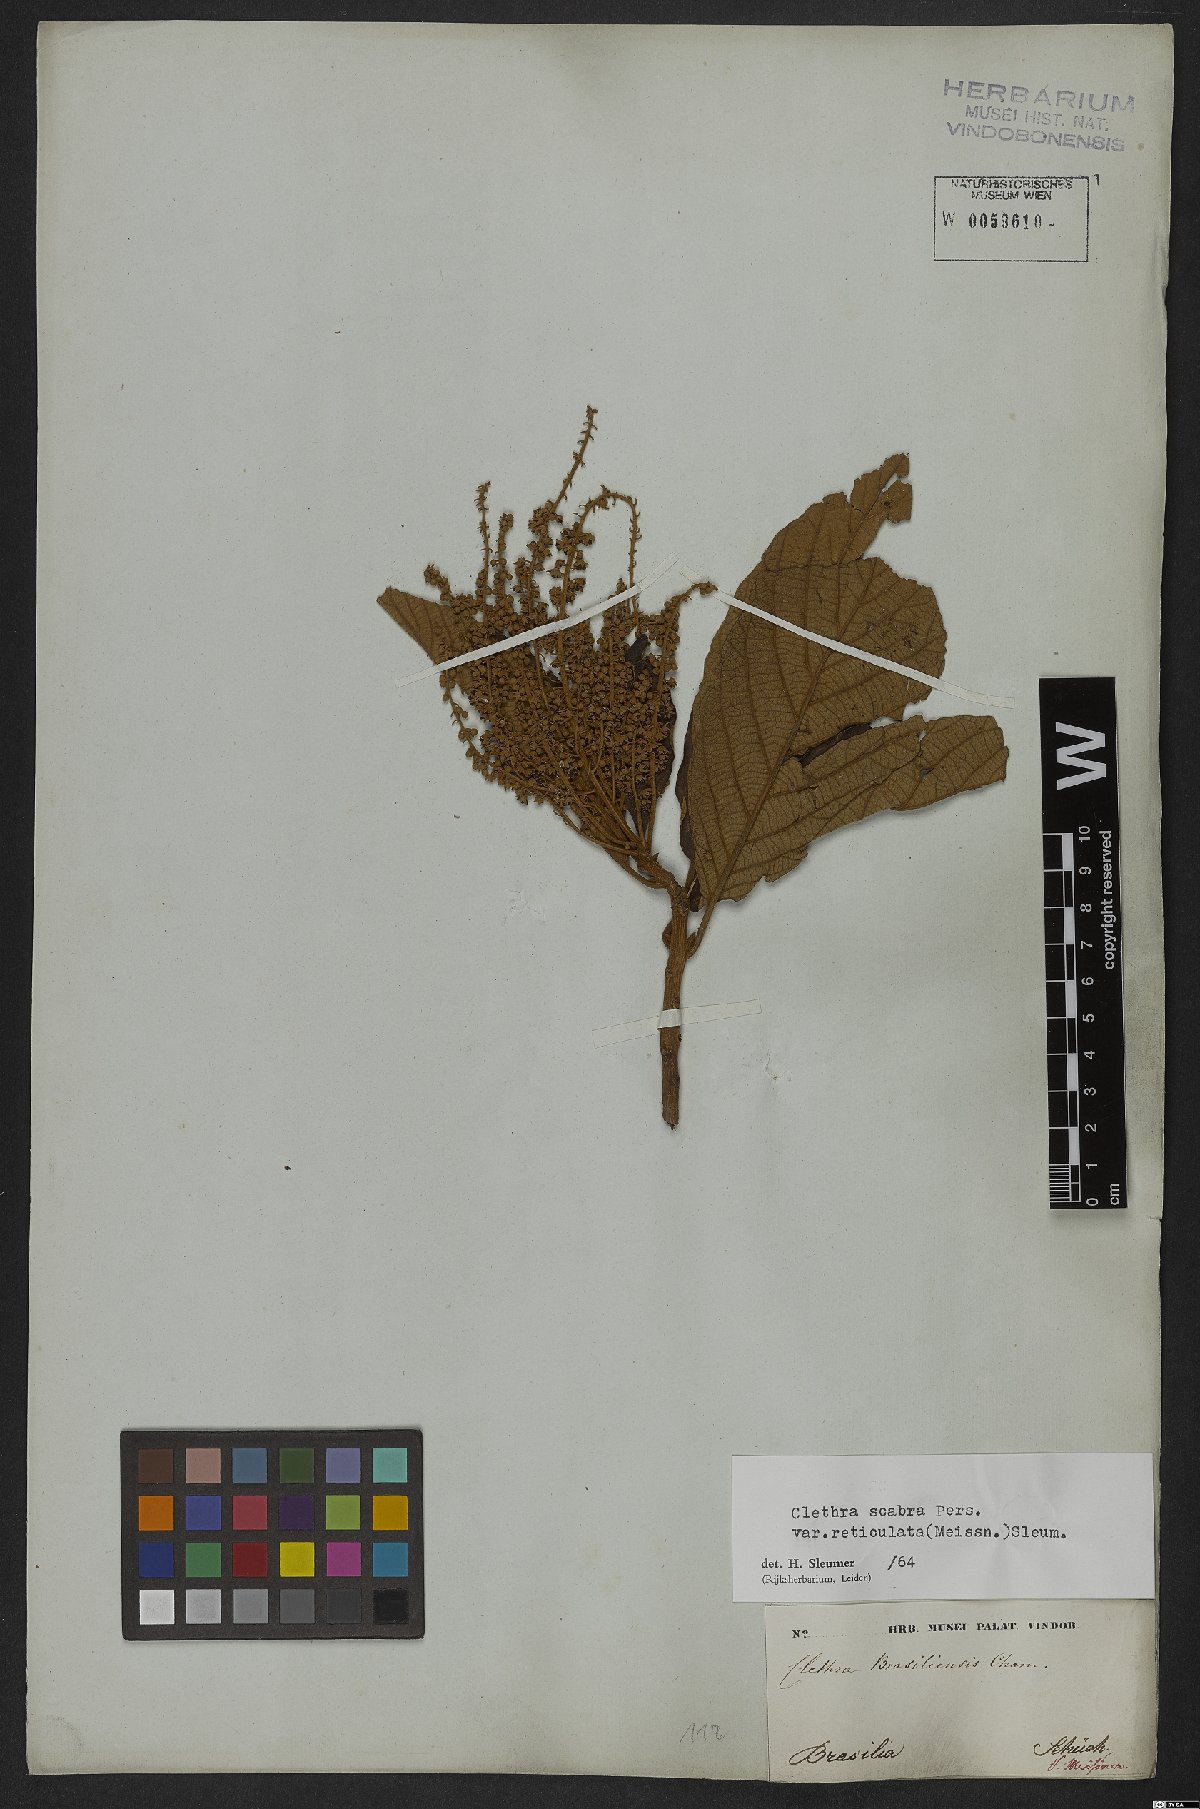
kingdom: Plantae
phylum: Tracheophyta
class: Magnoliopsida
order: Ericales
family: Clethraceae
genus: Clethra
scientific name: Clethra scabra
